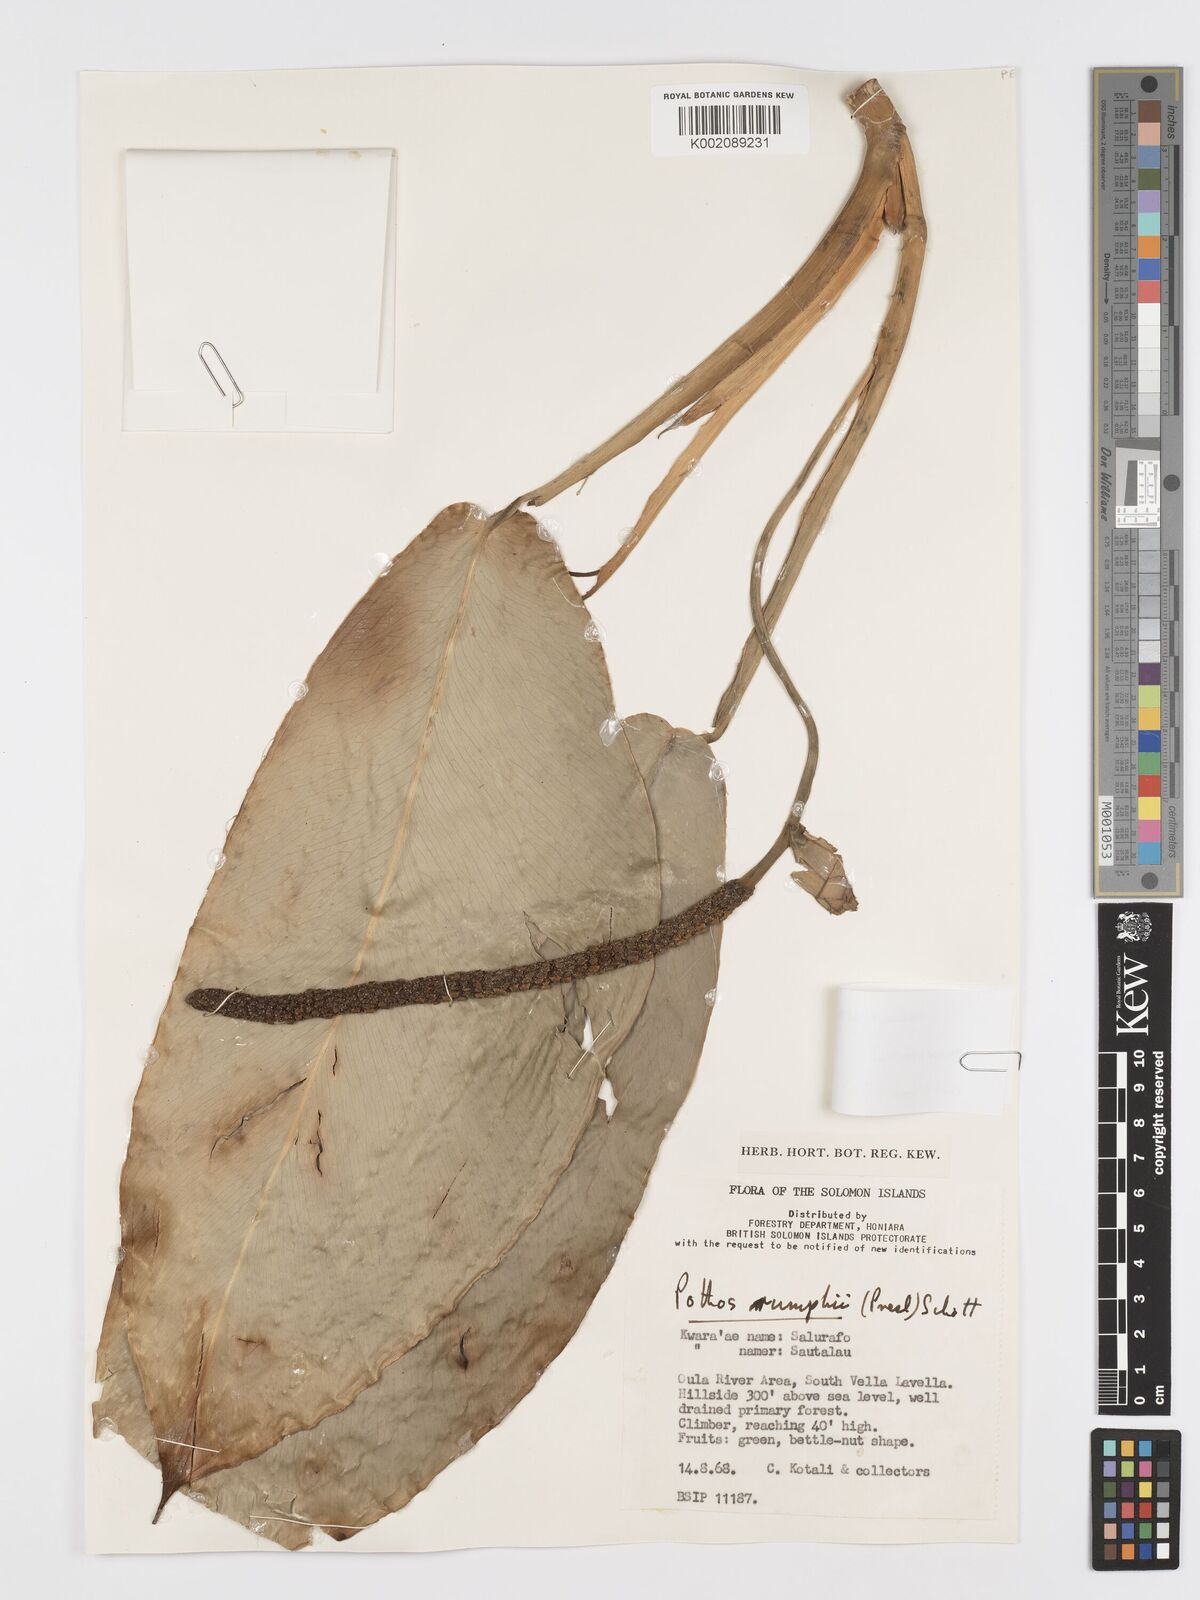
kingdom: Plantae
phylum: Tracheophyta
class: Liliopsida
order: Alismatales
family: Araceae
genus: Pothos
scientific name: Pothos tener
